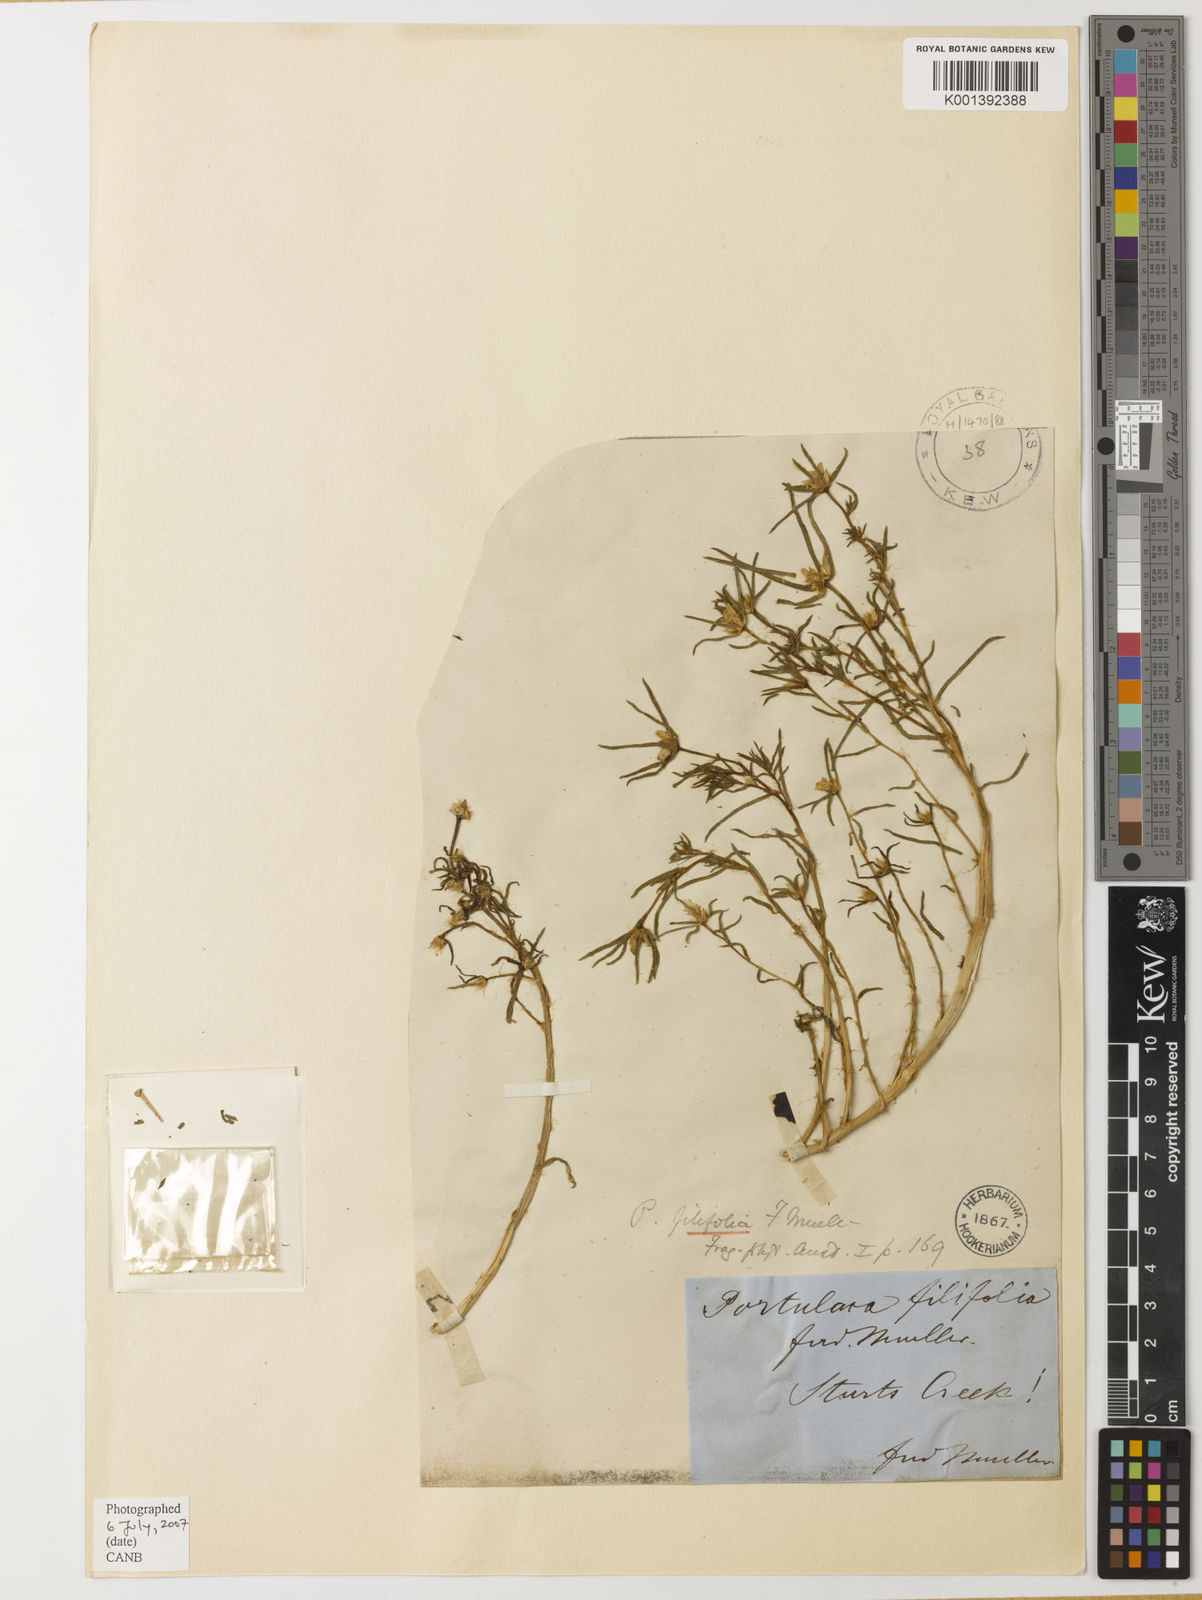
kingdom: Plantae
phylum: Tracheophyta
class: Magnoliopsida
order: Caryophyllales
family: Portulacaceae
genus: Portulaca
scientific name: Portulaca
